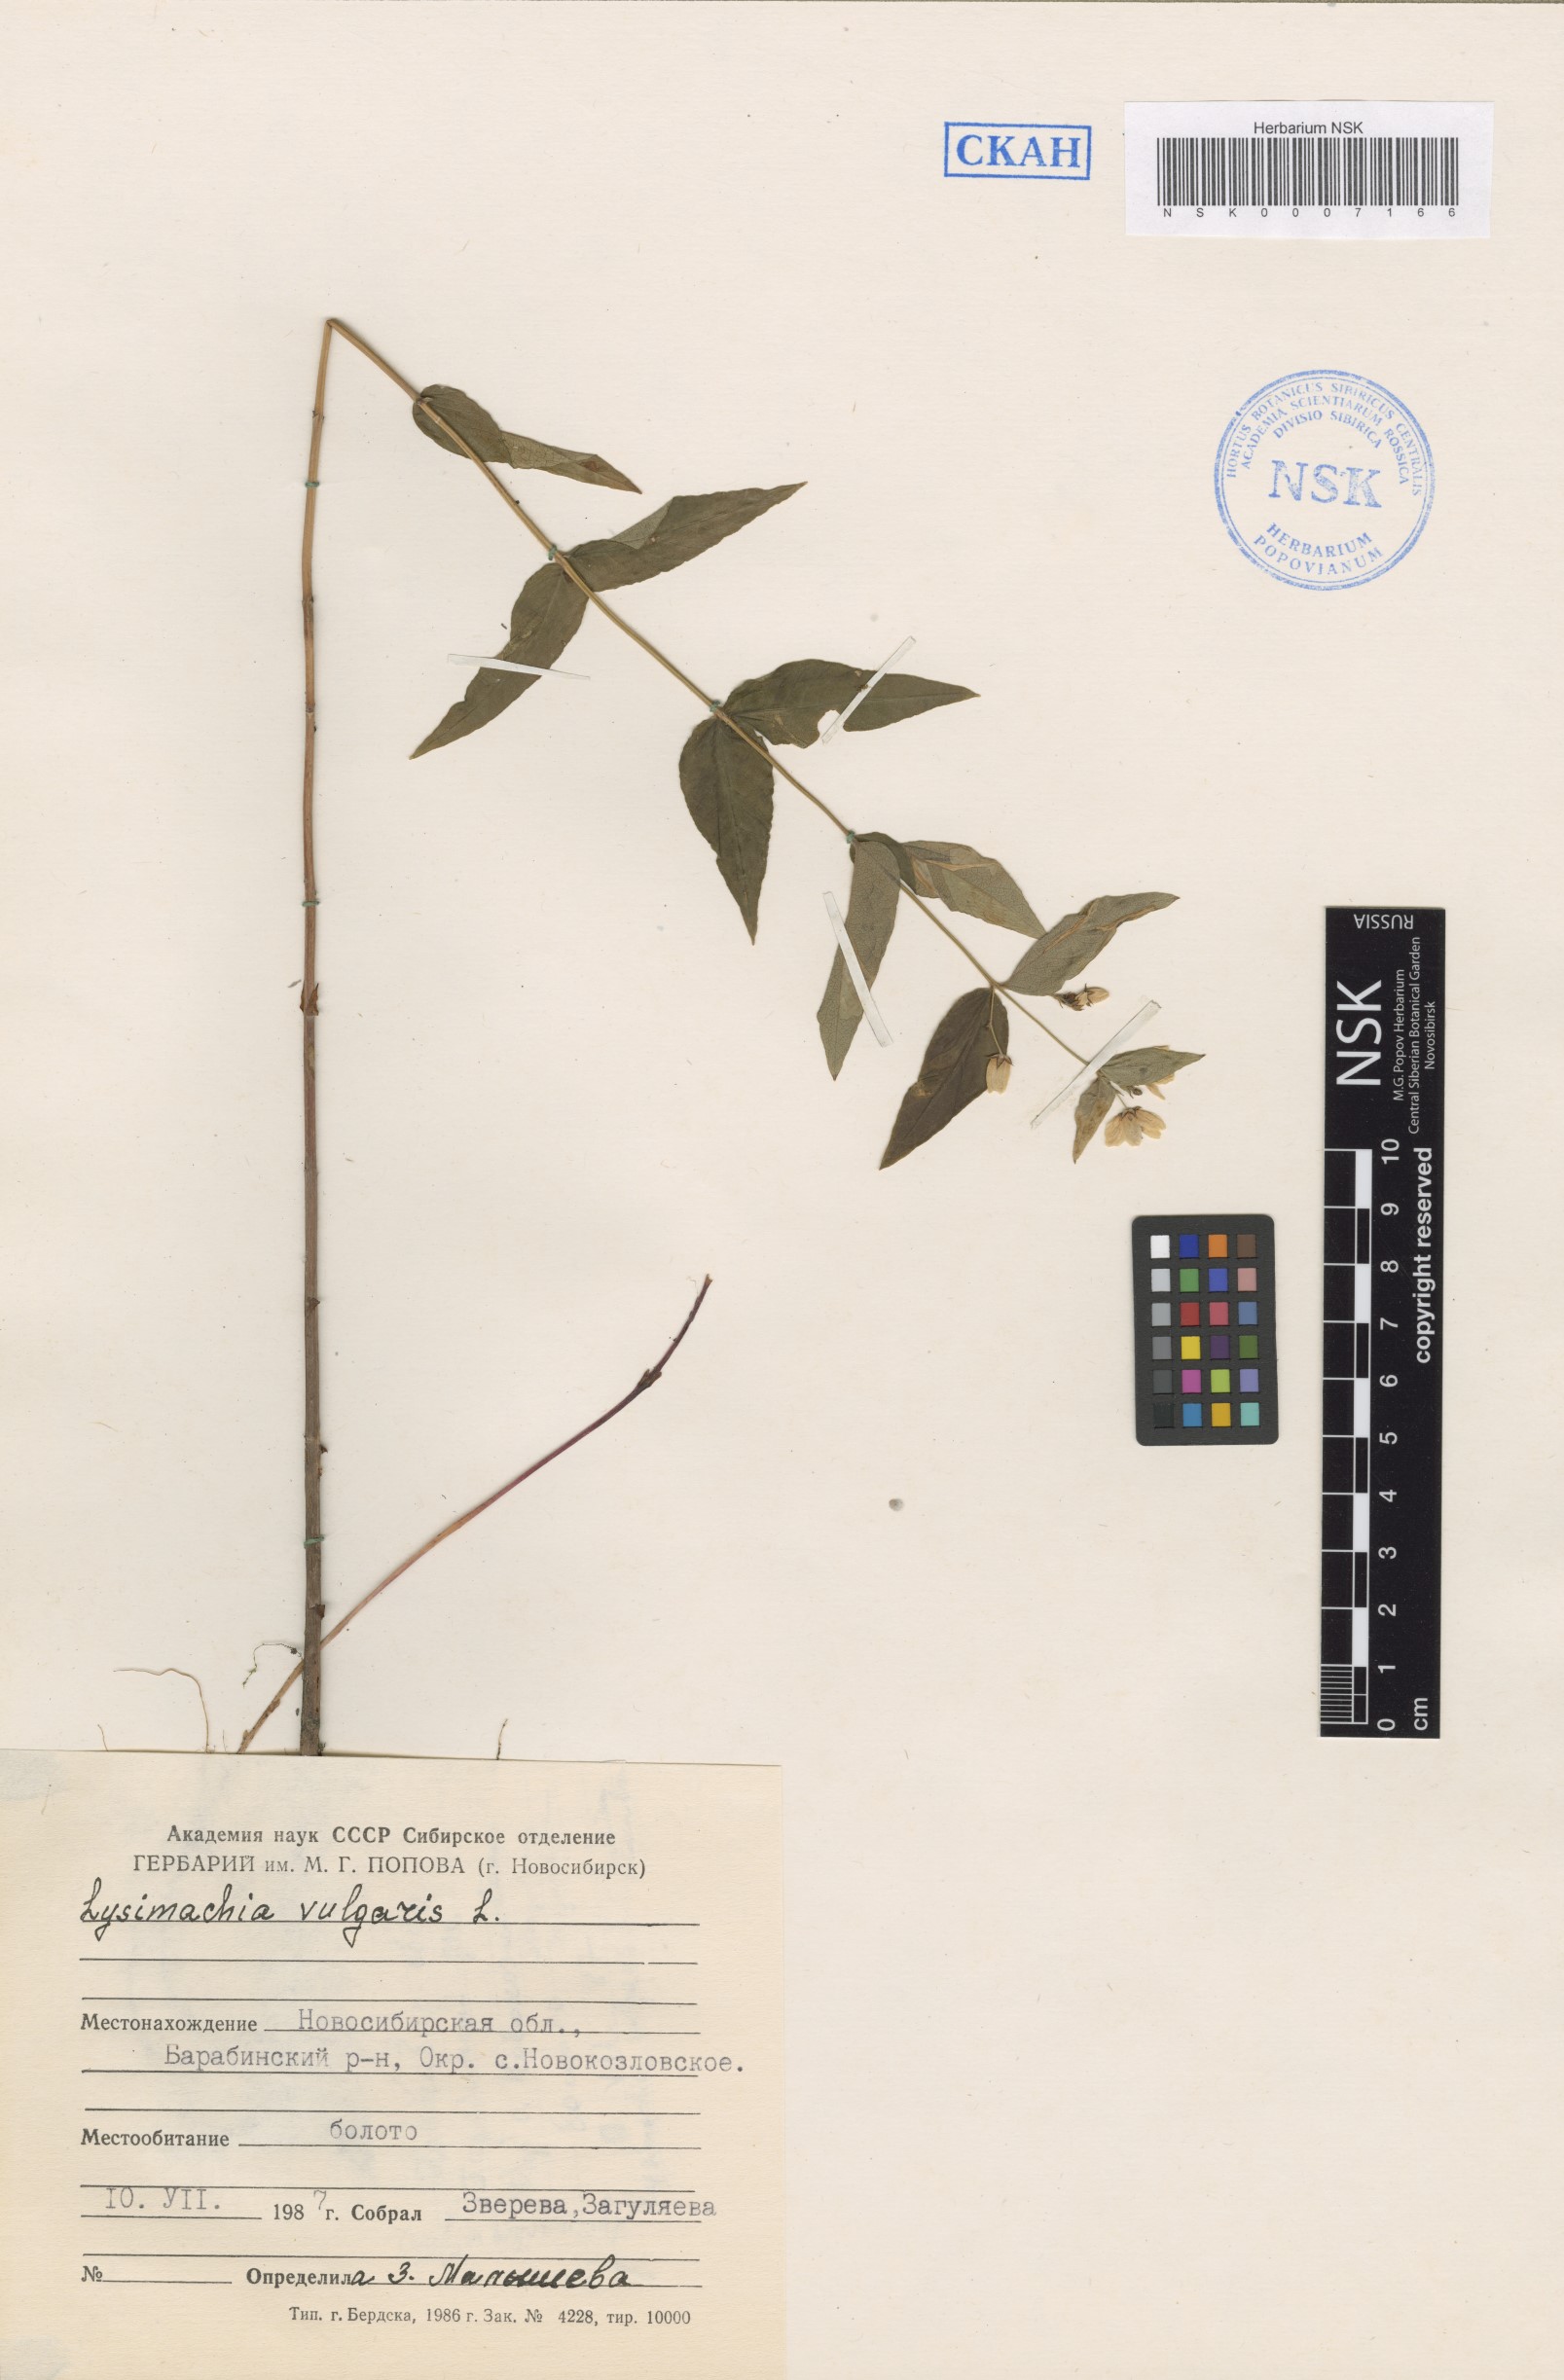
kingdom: Plantae
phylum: Tracheophyta
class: Magnoliopsida
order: Ericales
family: Primulaceae
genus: Lysimachia
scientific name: Lysimachia vulgaris
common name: Yellow loosestrife
